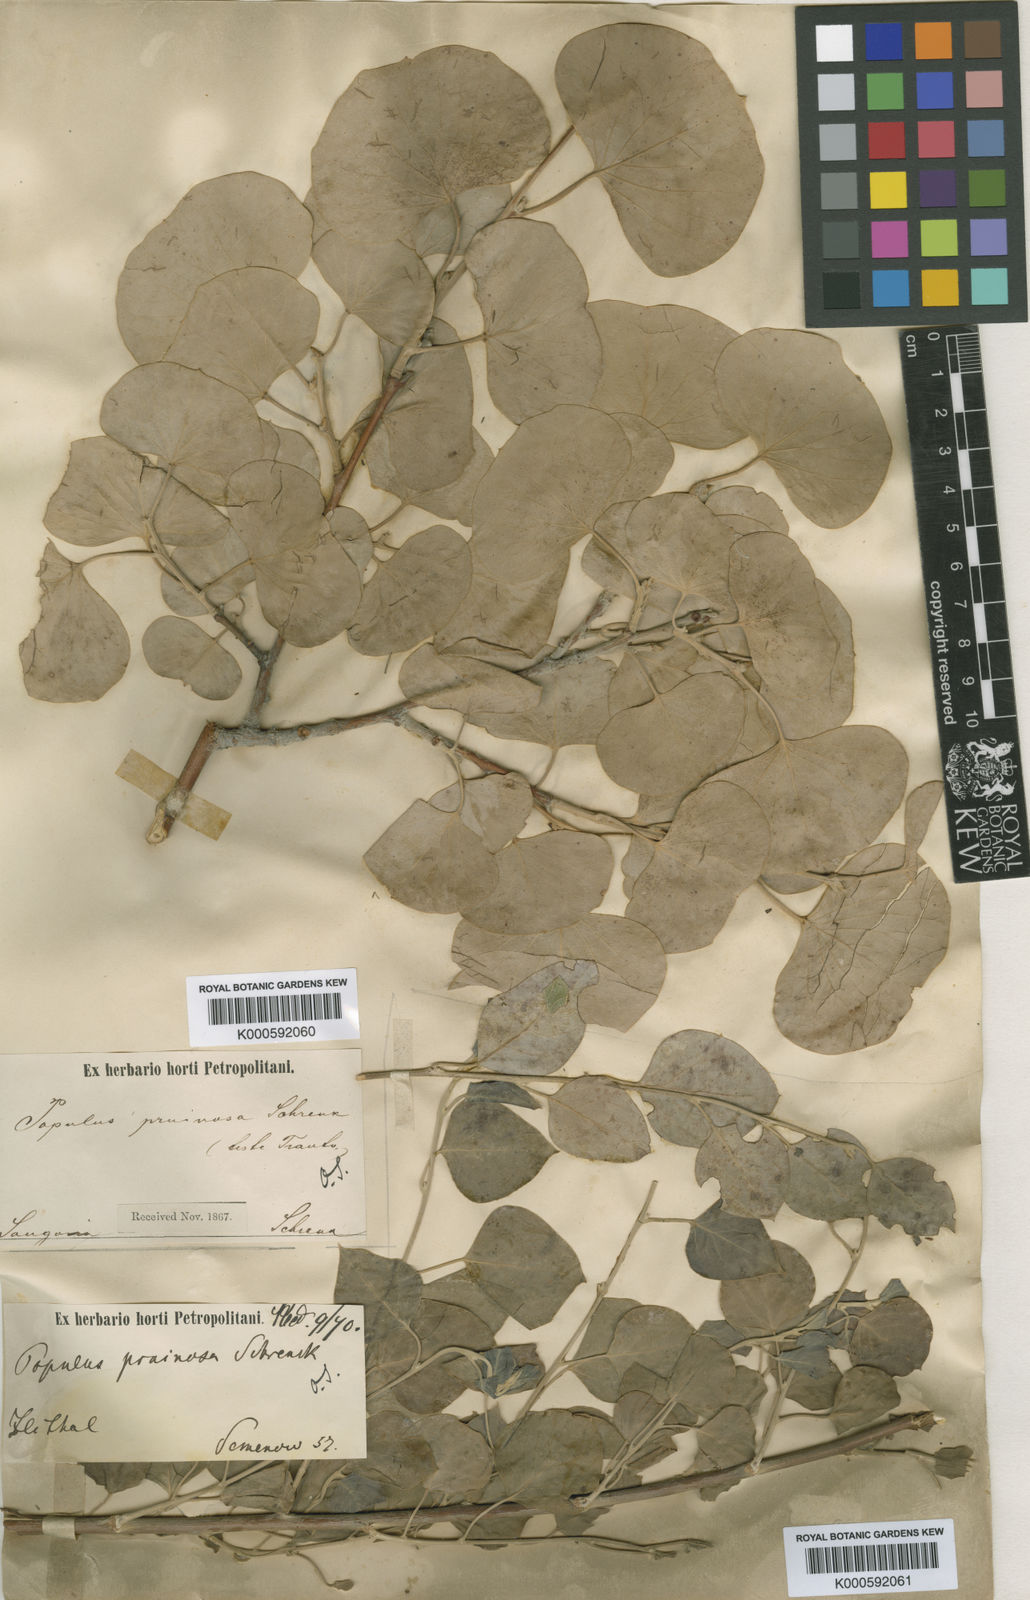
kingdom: Plantae
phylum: Tracheophyta
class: Magnoliopsida
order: Malpighiales
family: Salicaceae
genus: Populus
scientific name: Populus pruinosa
